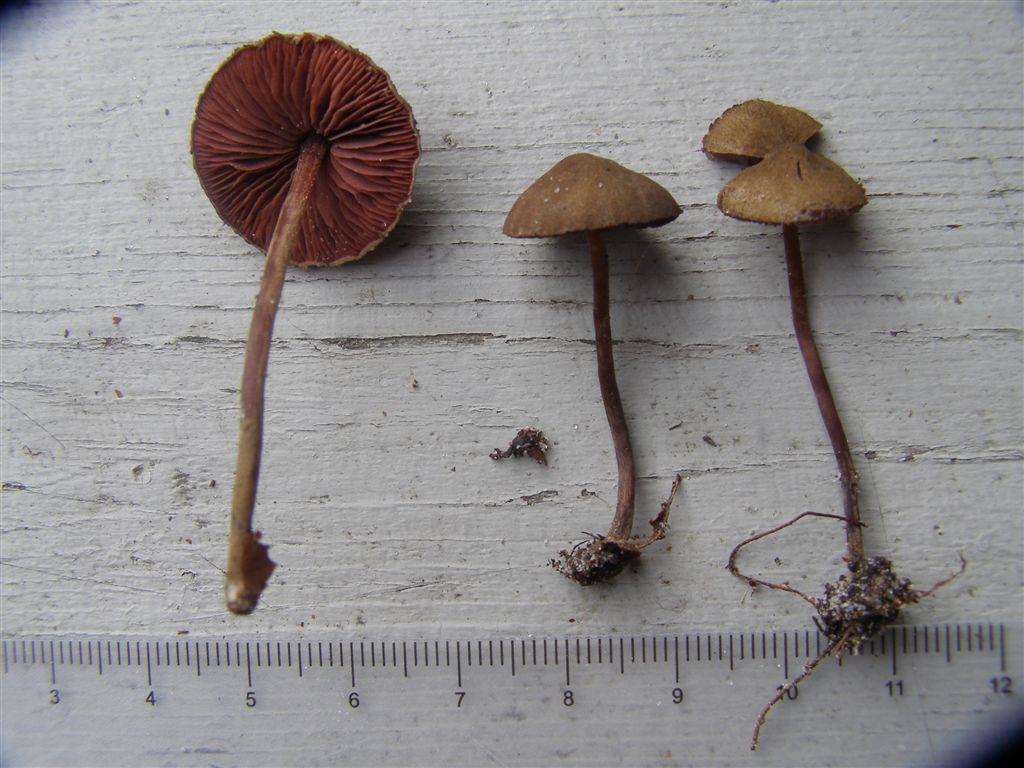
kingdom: Fungi
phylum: Basidiomycota
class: Agaricomycetes
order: Agaricales
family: Agaricaceae
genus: Melanophyllum
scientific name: Melanophyllum haematospermum
